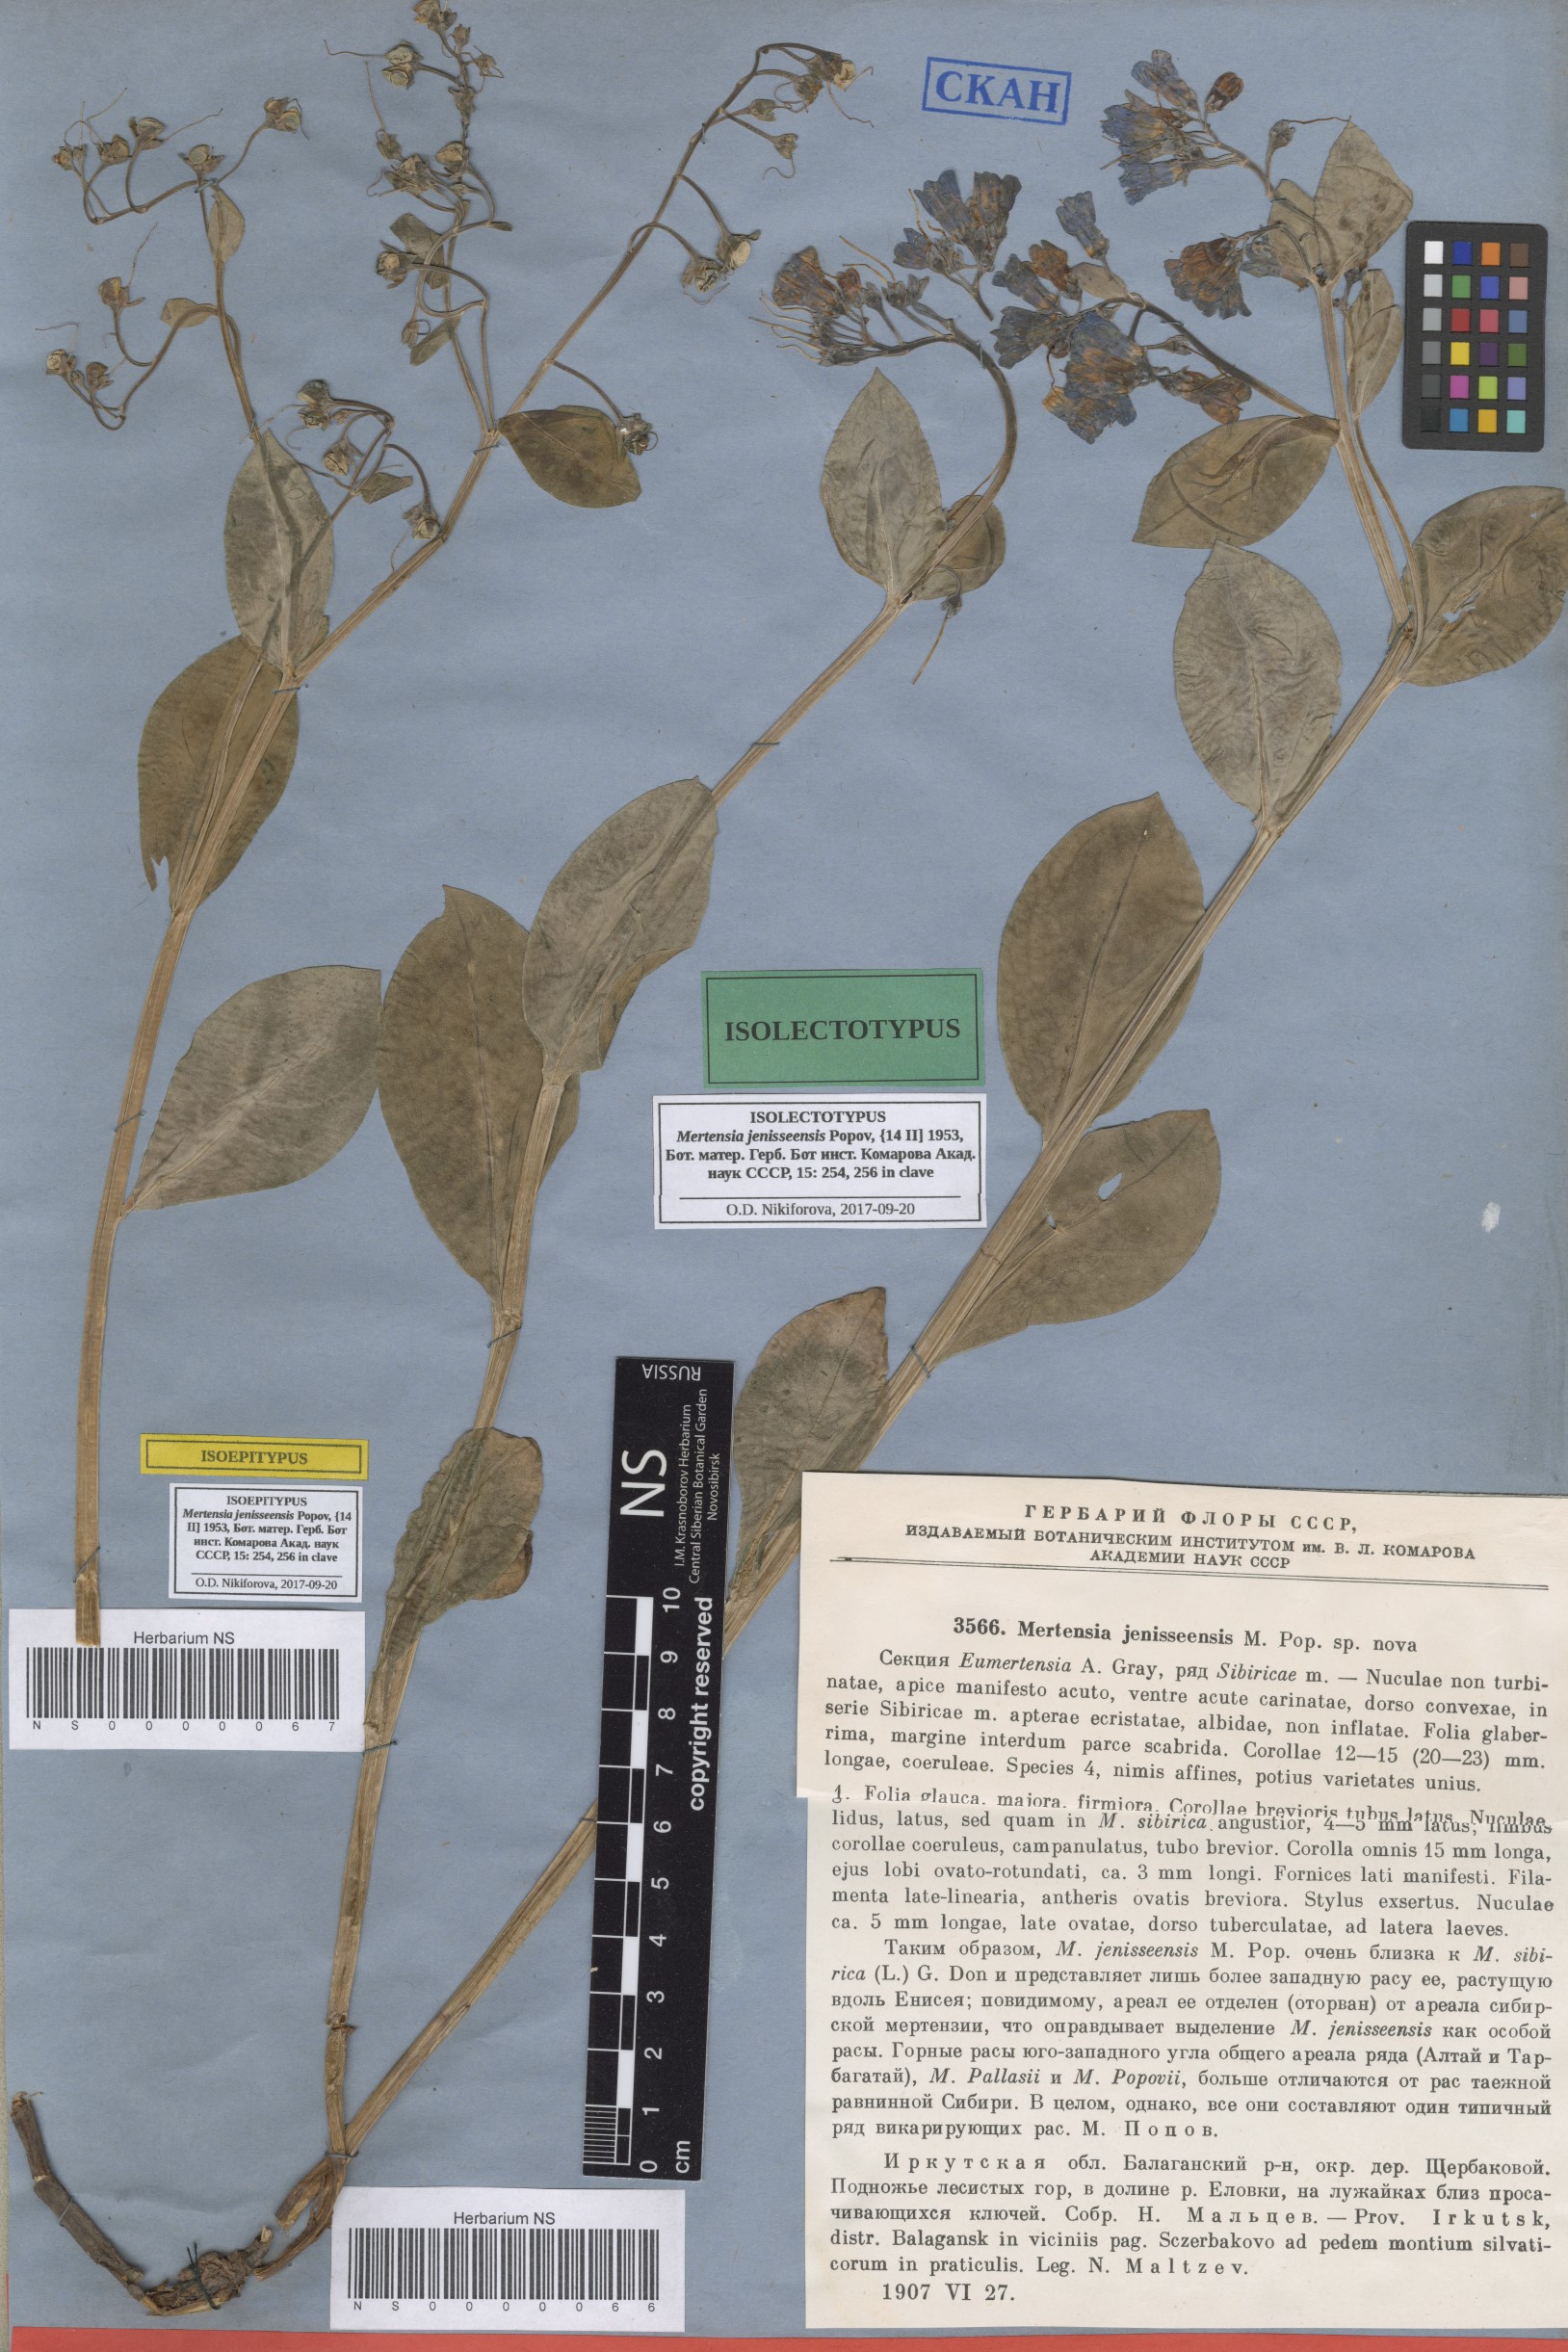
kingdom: Plantae
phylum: Tracheophyta
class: Magnoliopsida
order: Boraginales
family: Boraginaceae
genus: Mertensia
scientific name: Mertensia sibirica
